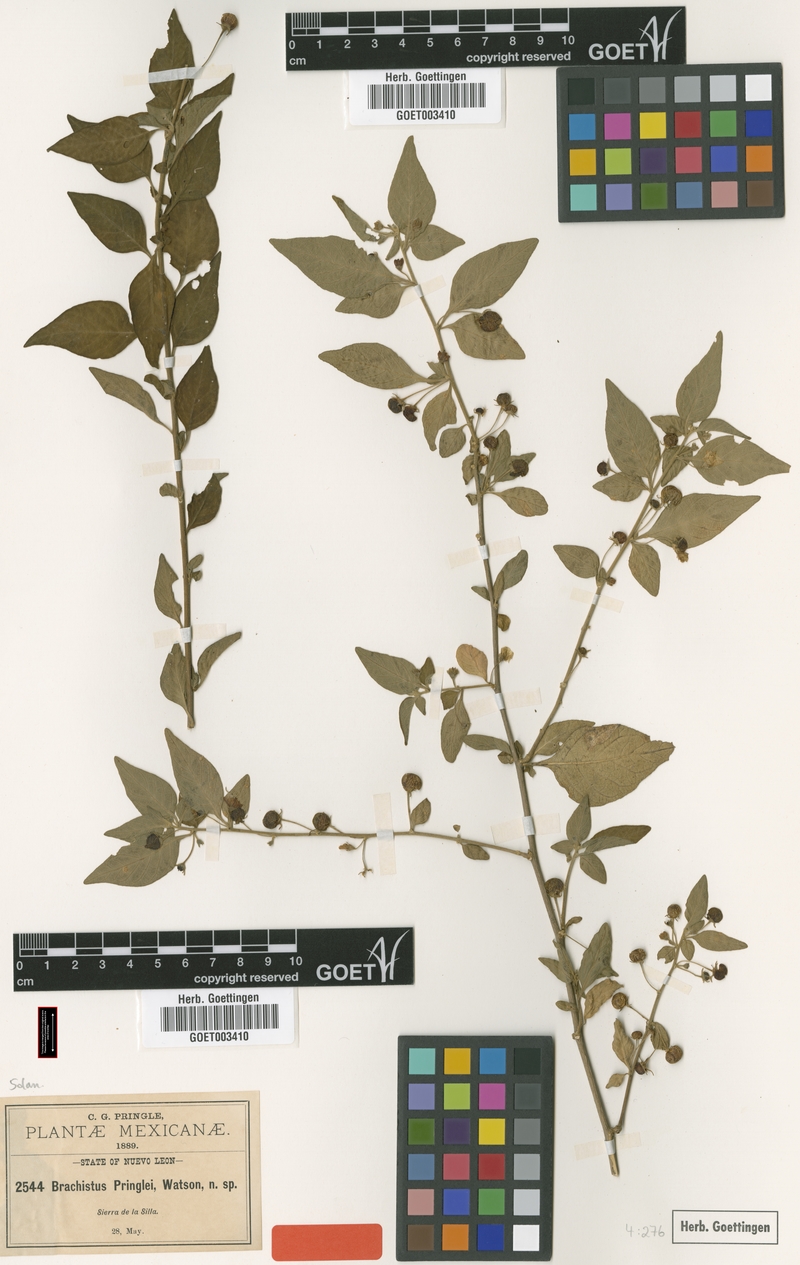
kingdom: Plantae
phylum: Tracheophyta
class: Magnoliopsida
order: Solanales
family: Solanaceae
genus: Capsicum
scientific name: Capsicum rhomboideum
